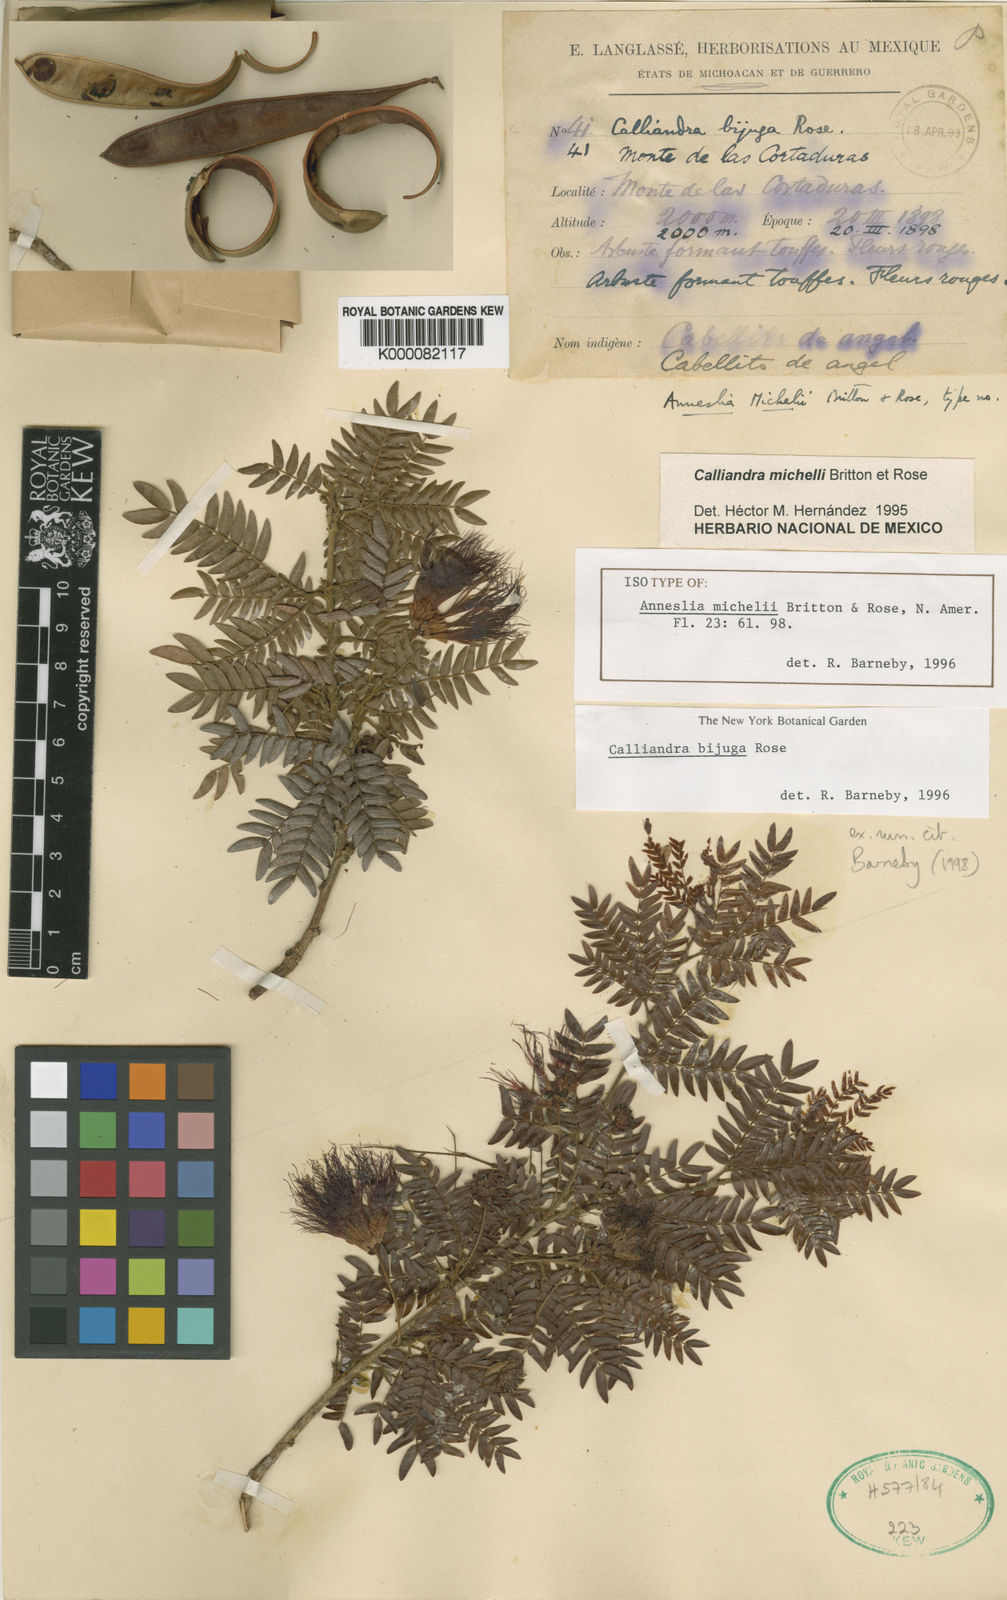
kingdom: Plantae
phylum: Tracheophyta
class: Magnoliopsida
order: Fabales
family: Fabaceae
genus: Calliandra
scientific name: Calliandra bijuga
